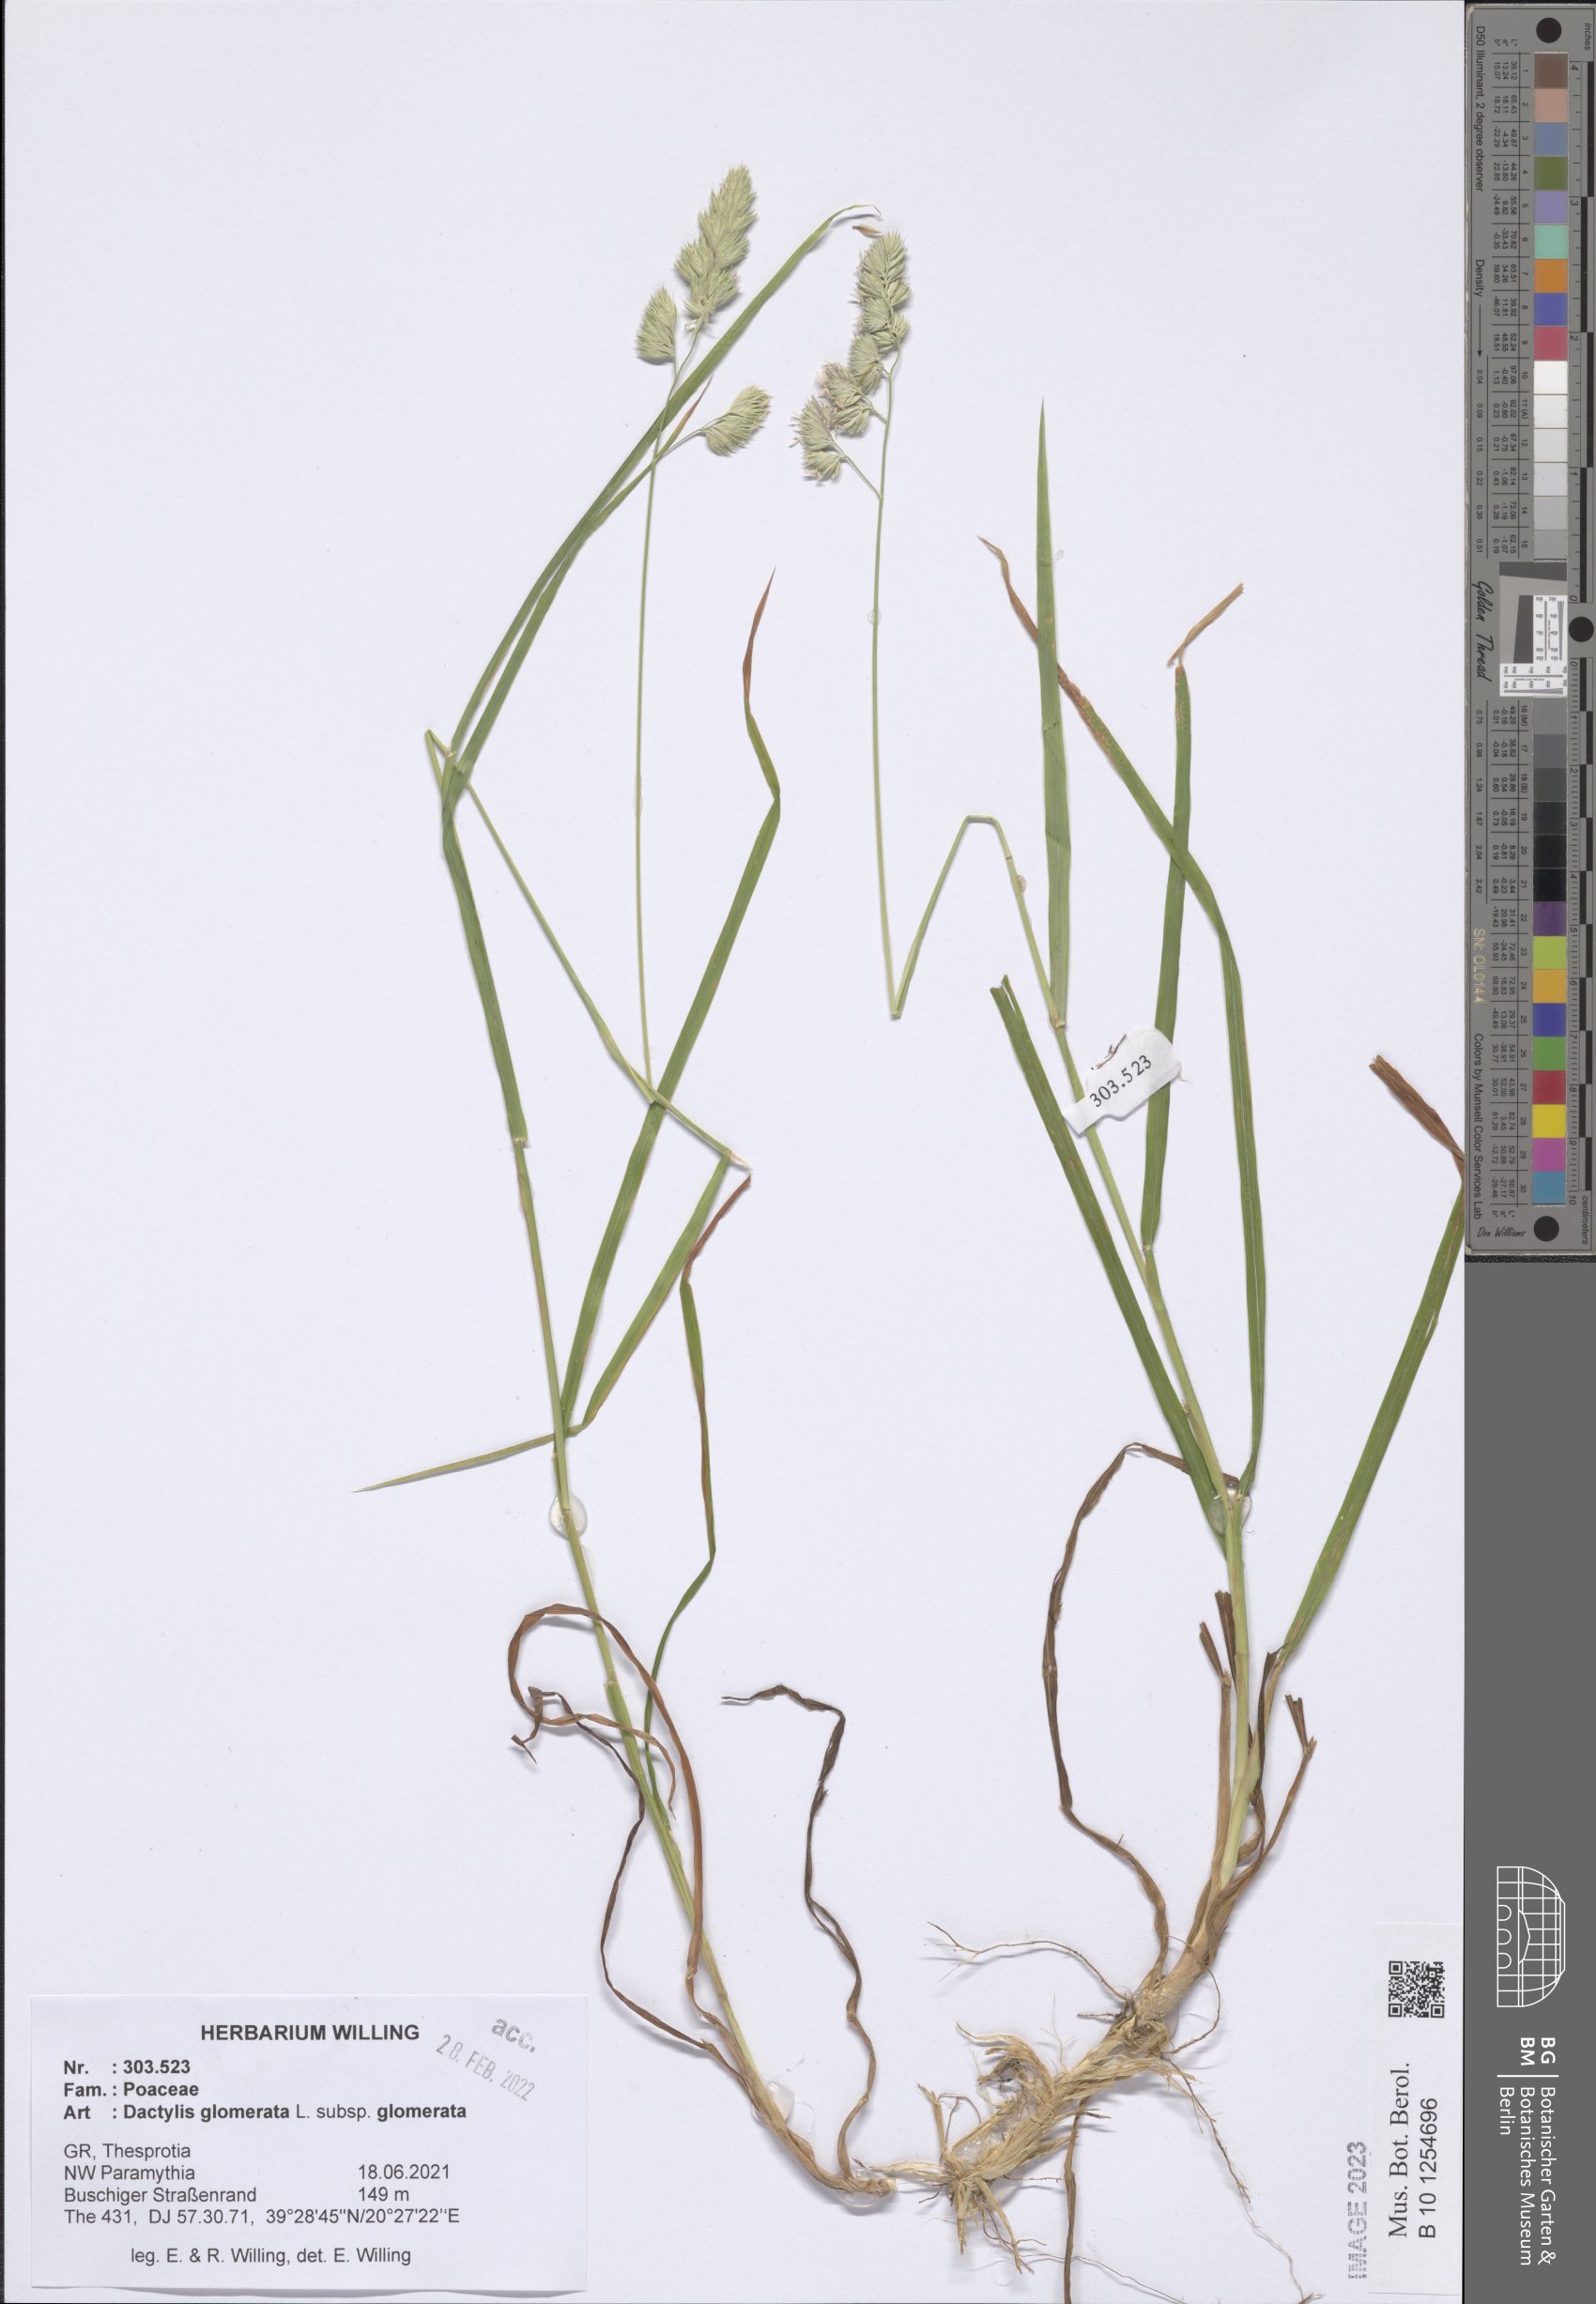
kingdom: Plantae
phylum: Tracheophyta
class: Liliopsida
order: Poales
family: Poaceae
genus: Dactylis
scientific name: Dactylis glomerata
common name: Orchardgrass
